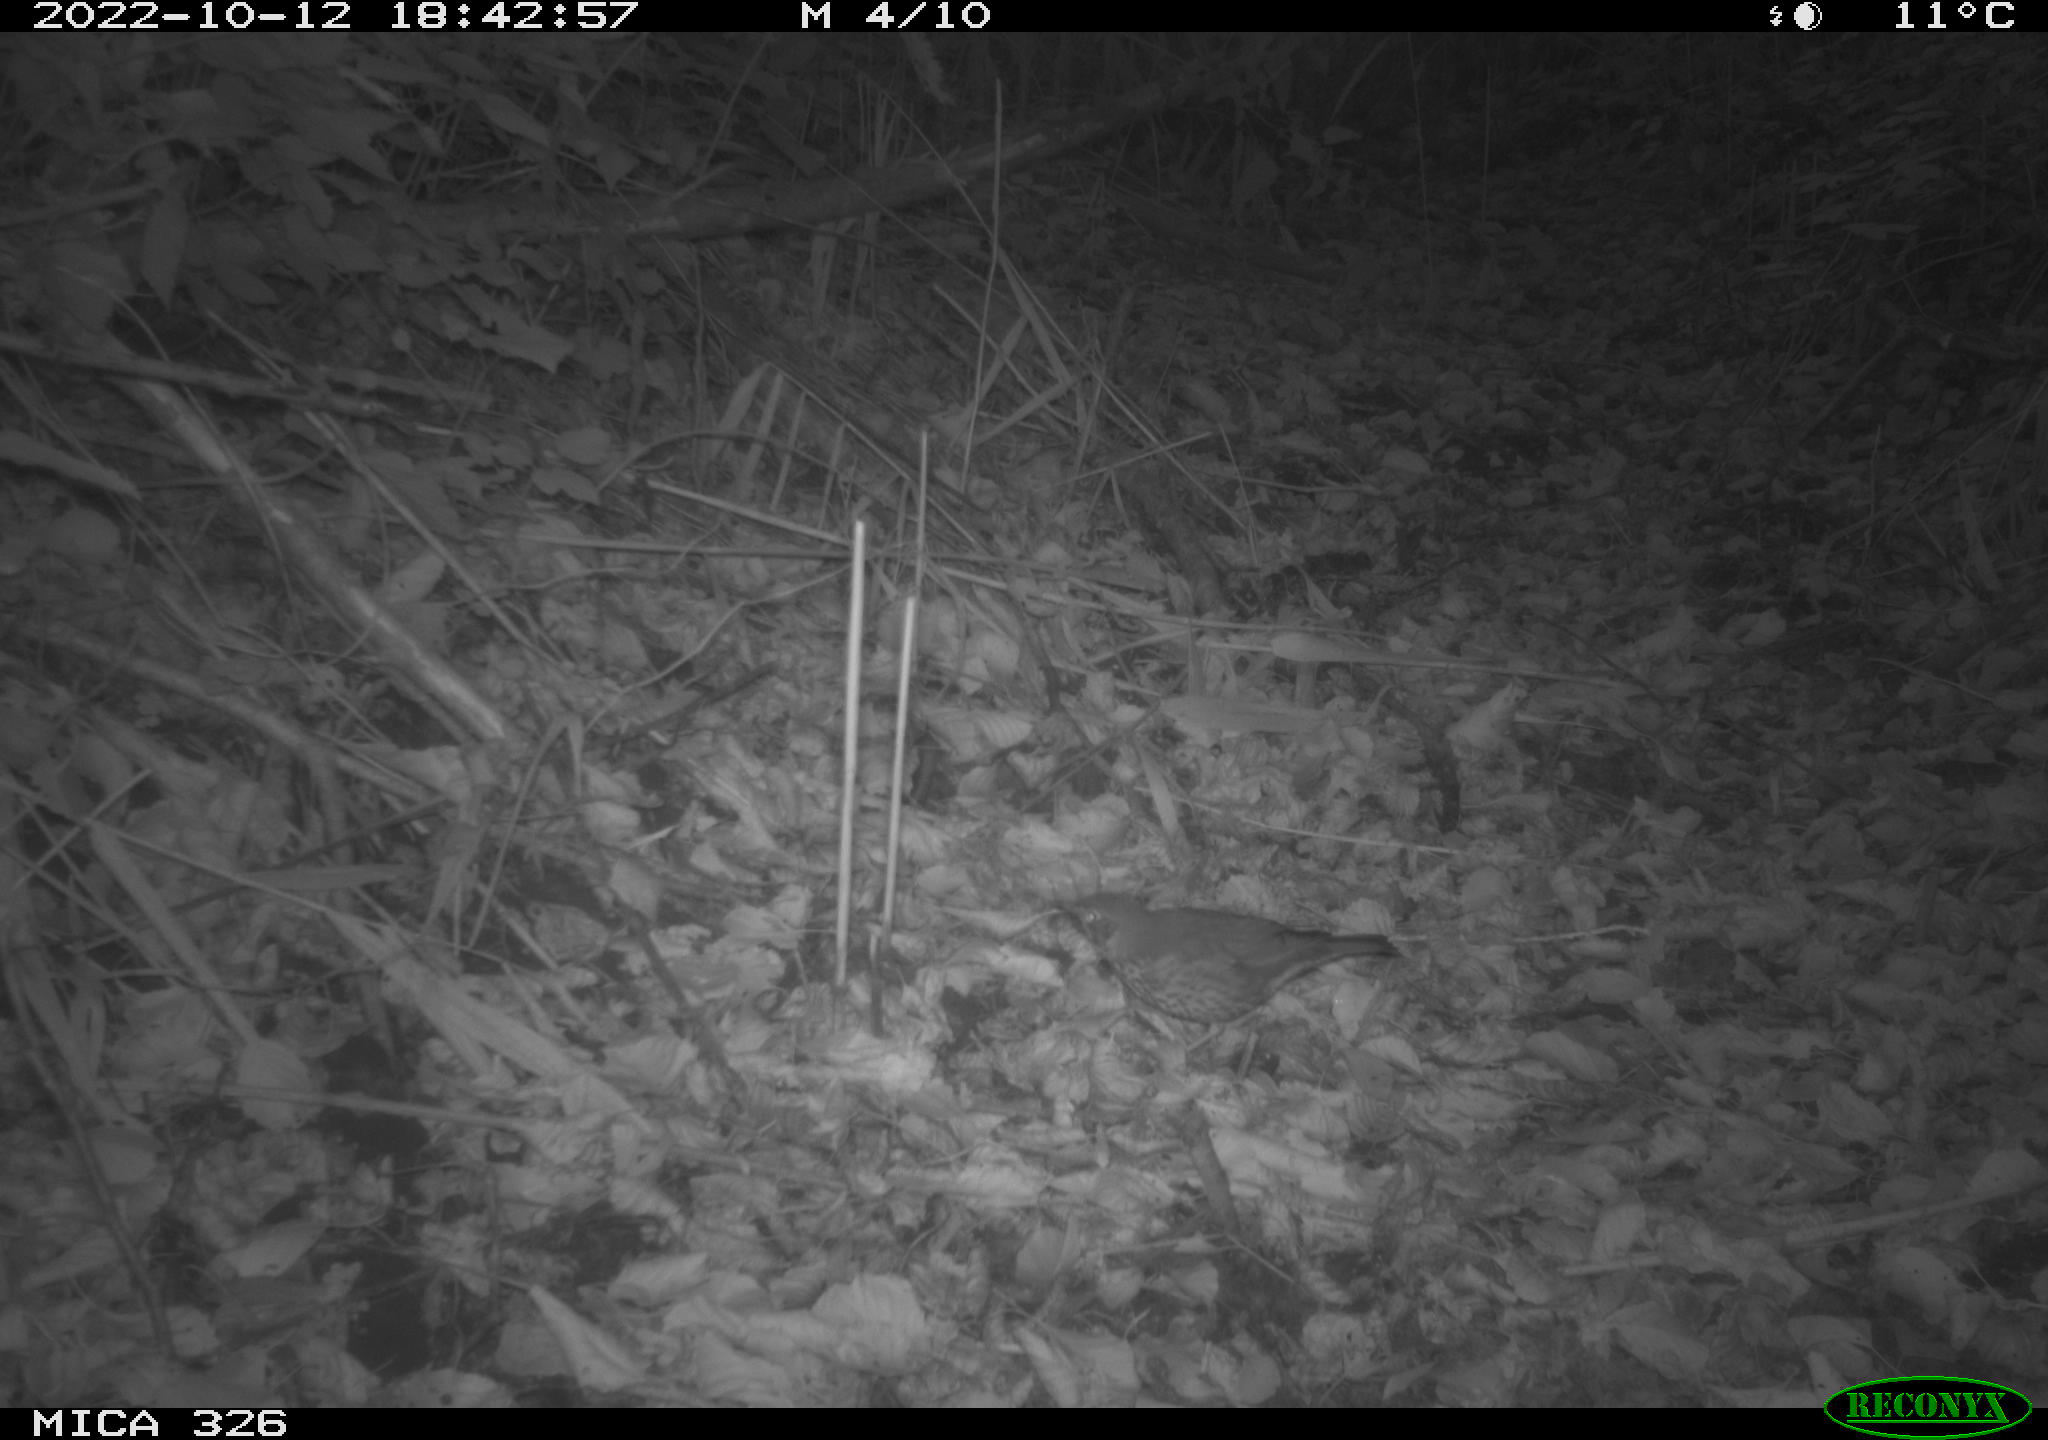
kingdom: Animalia
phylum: Chordata
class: Aves
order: Passeriformes
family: Turdidae
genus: Turdus
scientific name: Turdus philomelos
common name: Song thrush
